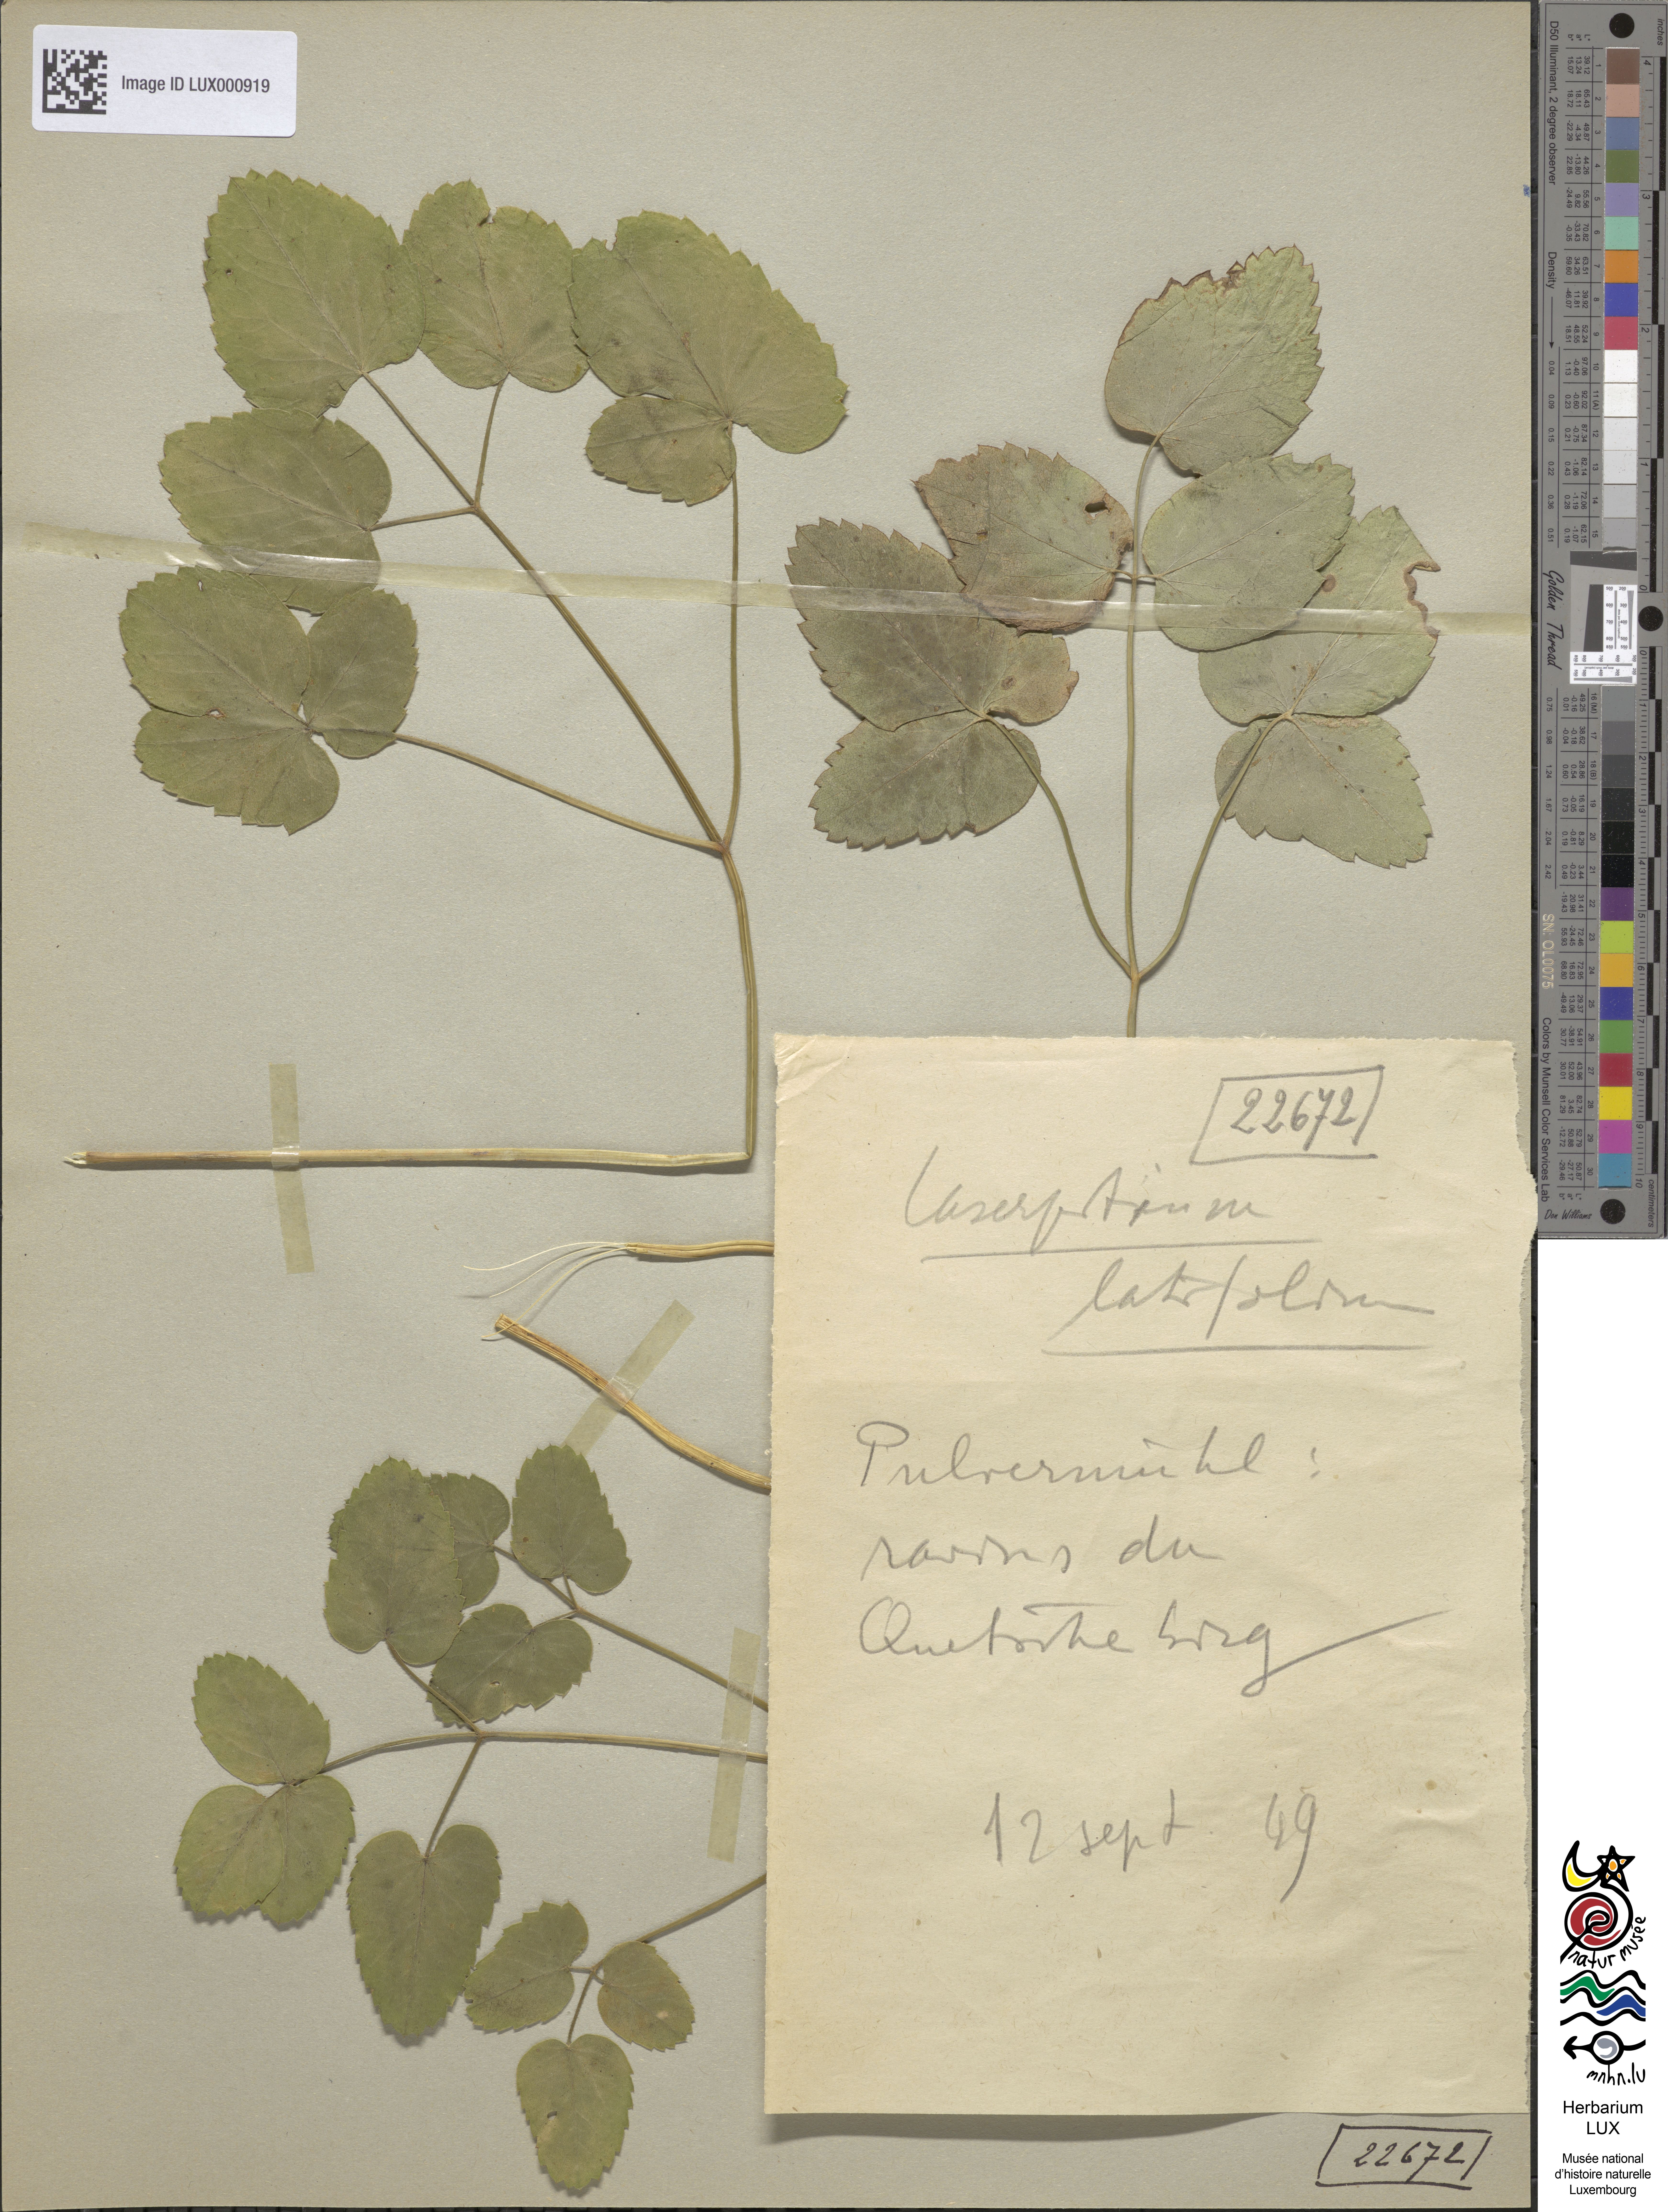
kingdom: Plantae
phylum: Tracheophyta
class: Magnoliopsida
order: Apiales
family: Apiaceae
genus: Laserpitium
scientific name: Laserpitium latifolium
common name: Broadleaf sermountain
